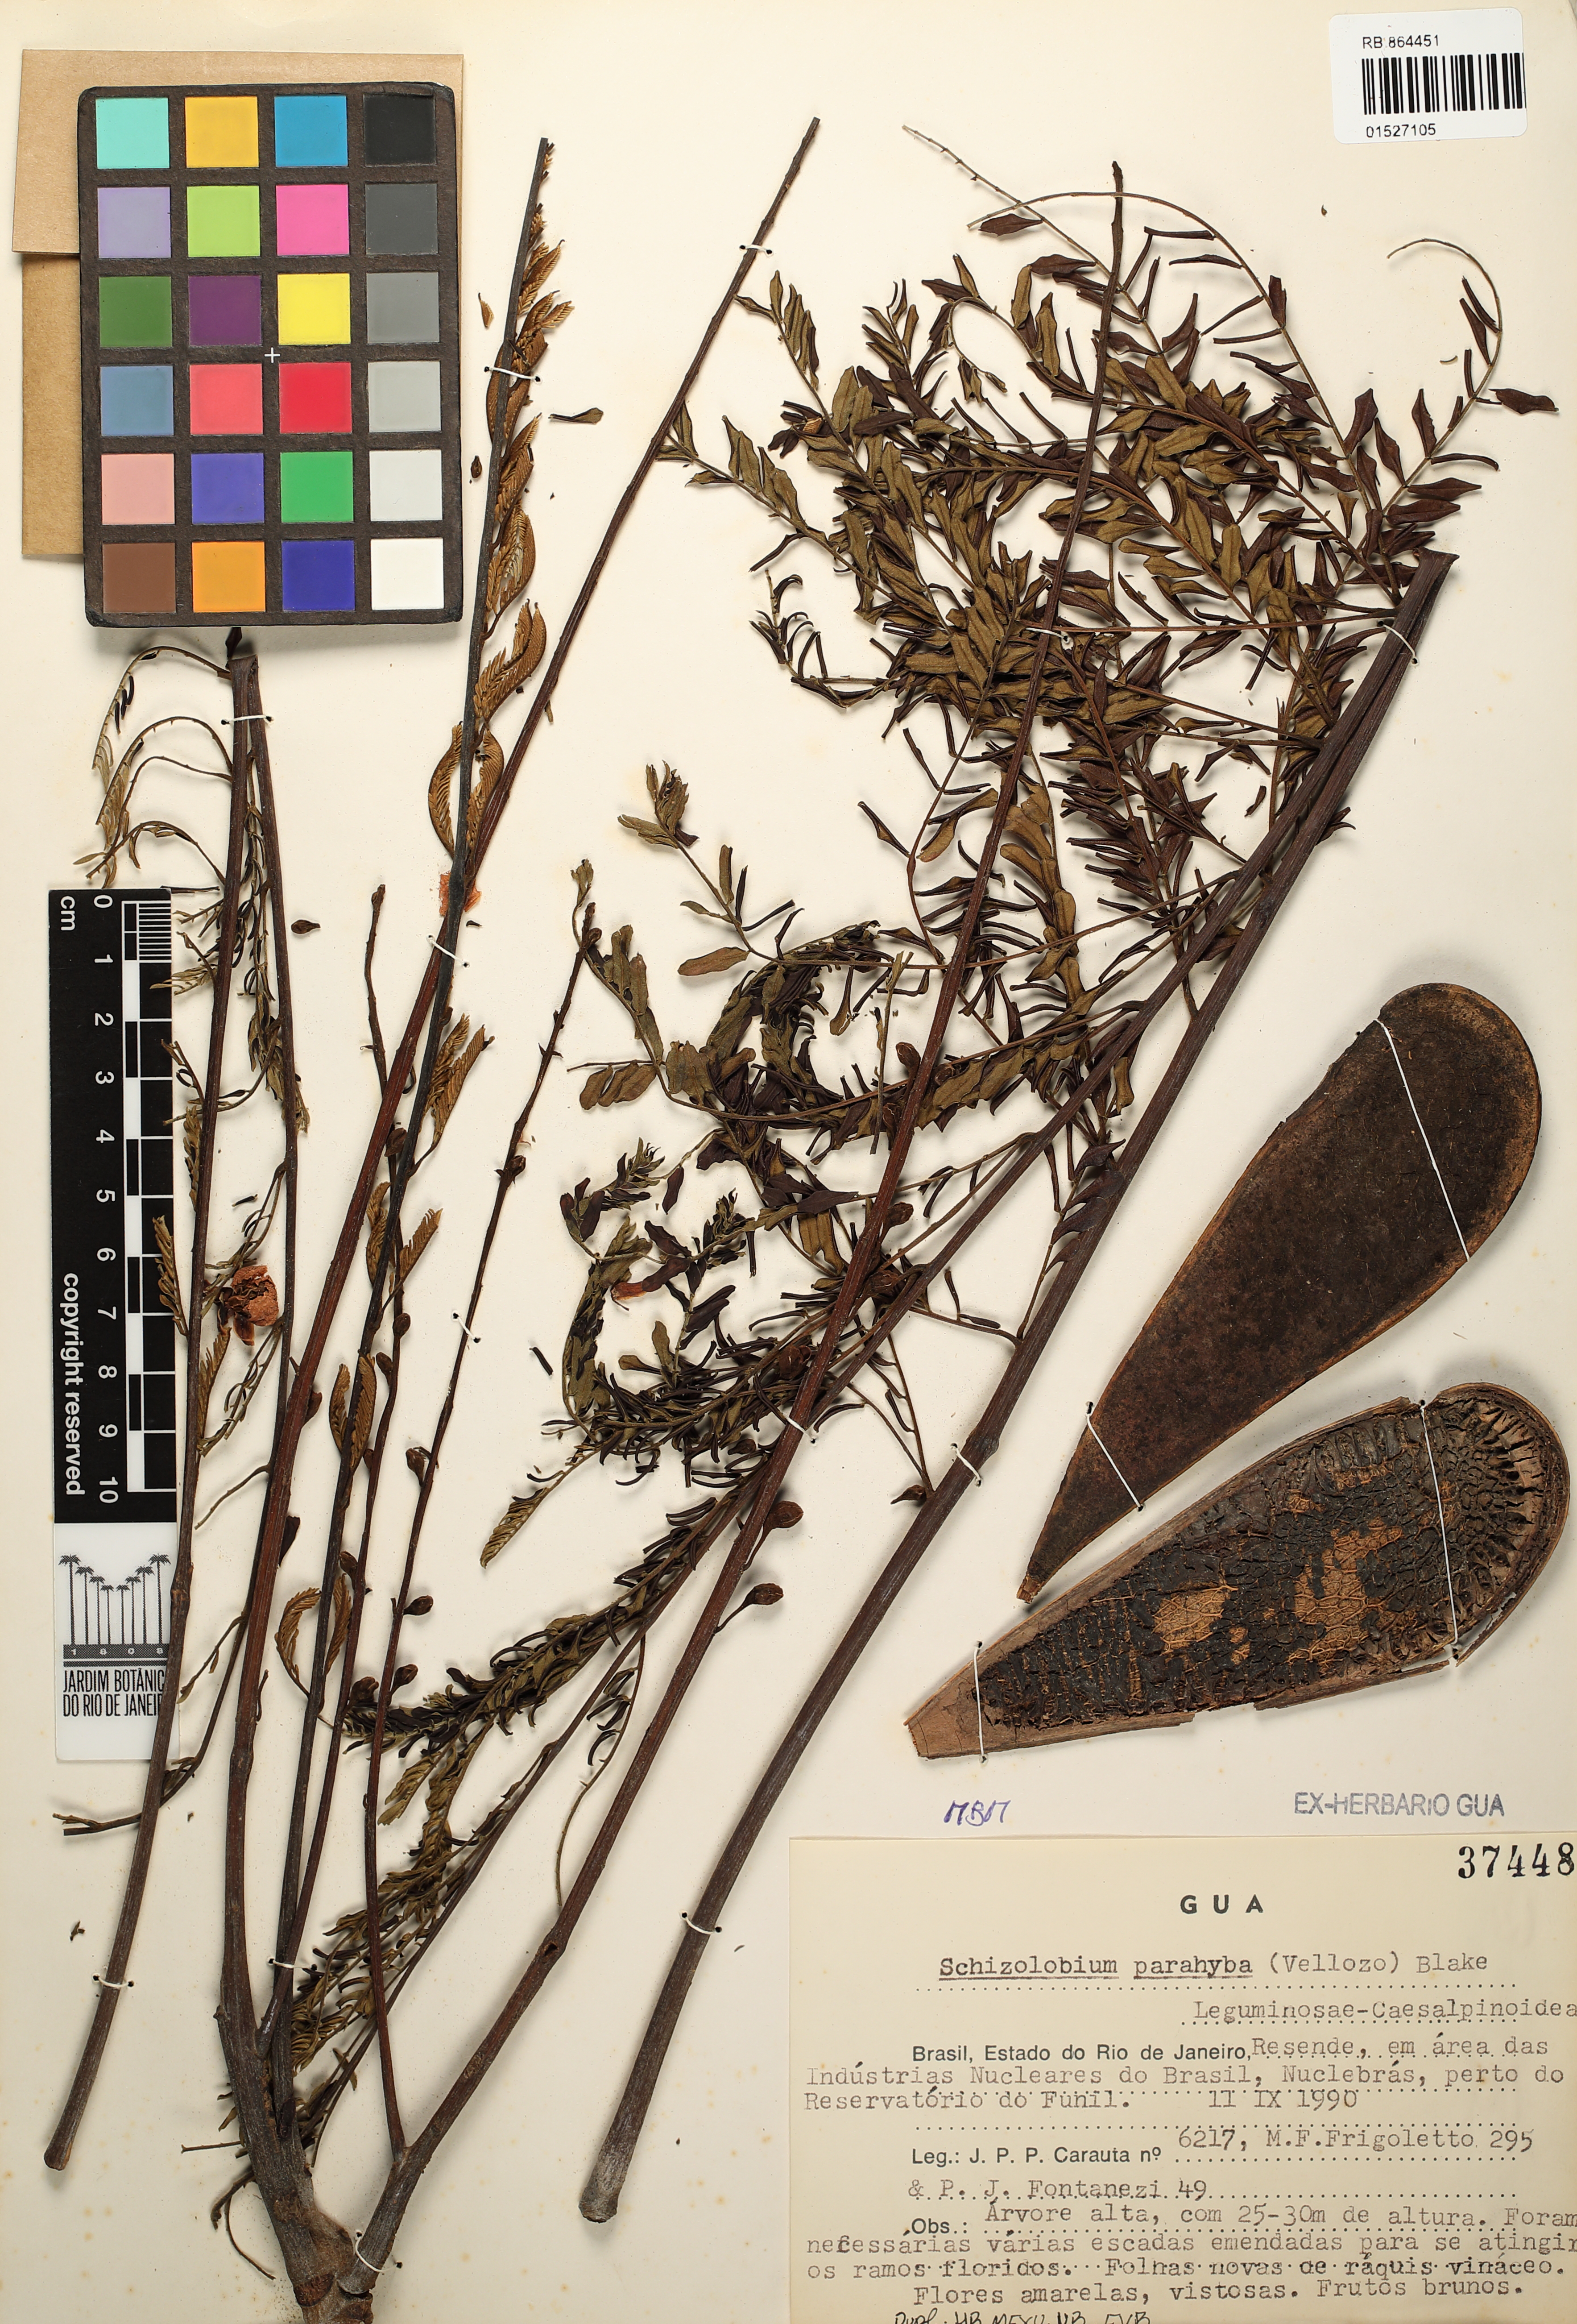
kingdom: Plantae
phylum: Tracheophyta
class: Magnoliopsida
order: Fabales
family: Fabaceae
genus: Schizolobium
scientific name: Schizolobium parahyba
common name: Brazilian firetree
